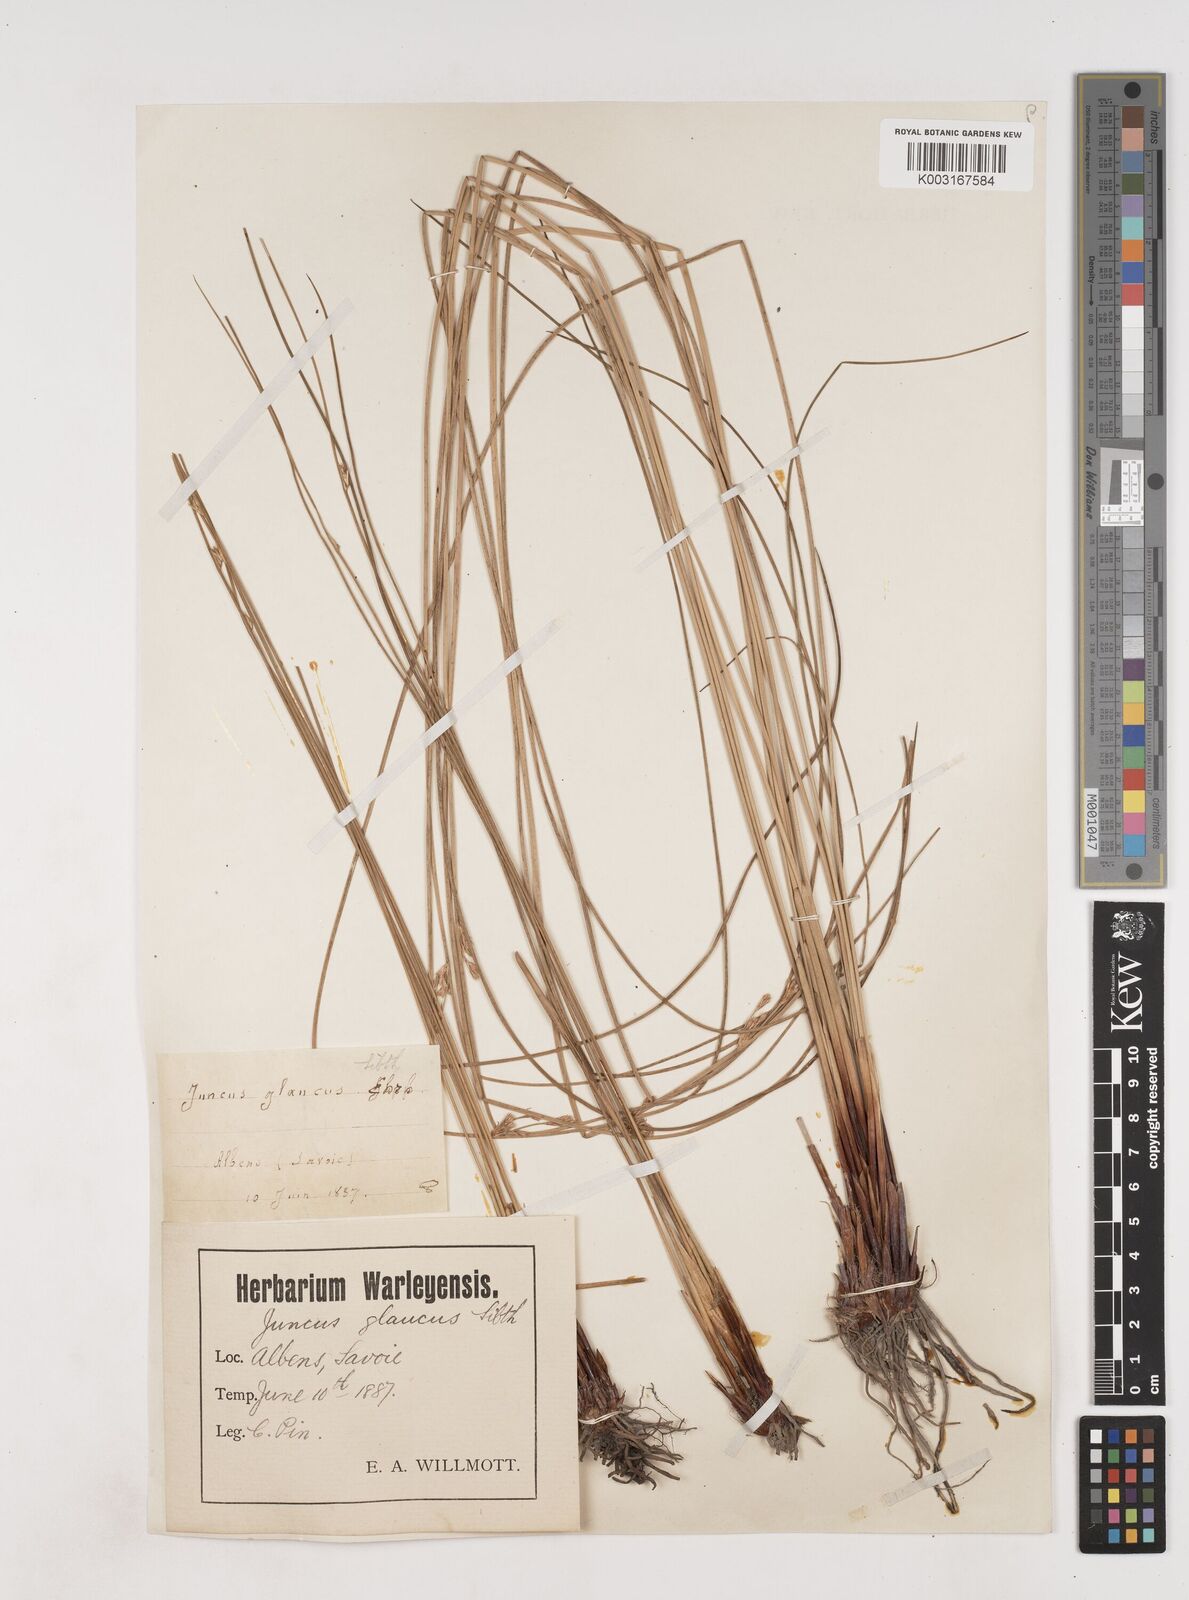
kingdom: Plantae
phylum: Tracheophyta
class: Liliopsida
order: Poales
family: Juncaceae
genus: Juncus
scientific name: Juncus inflexus
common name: Hard rush
